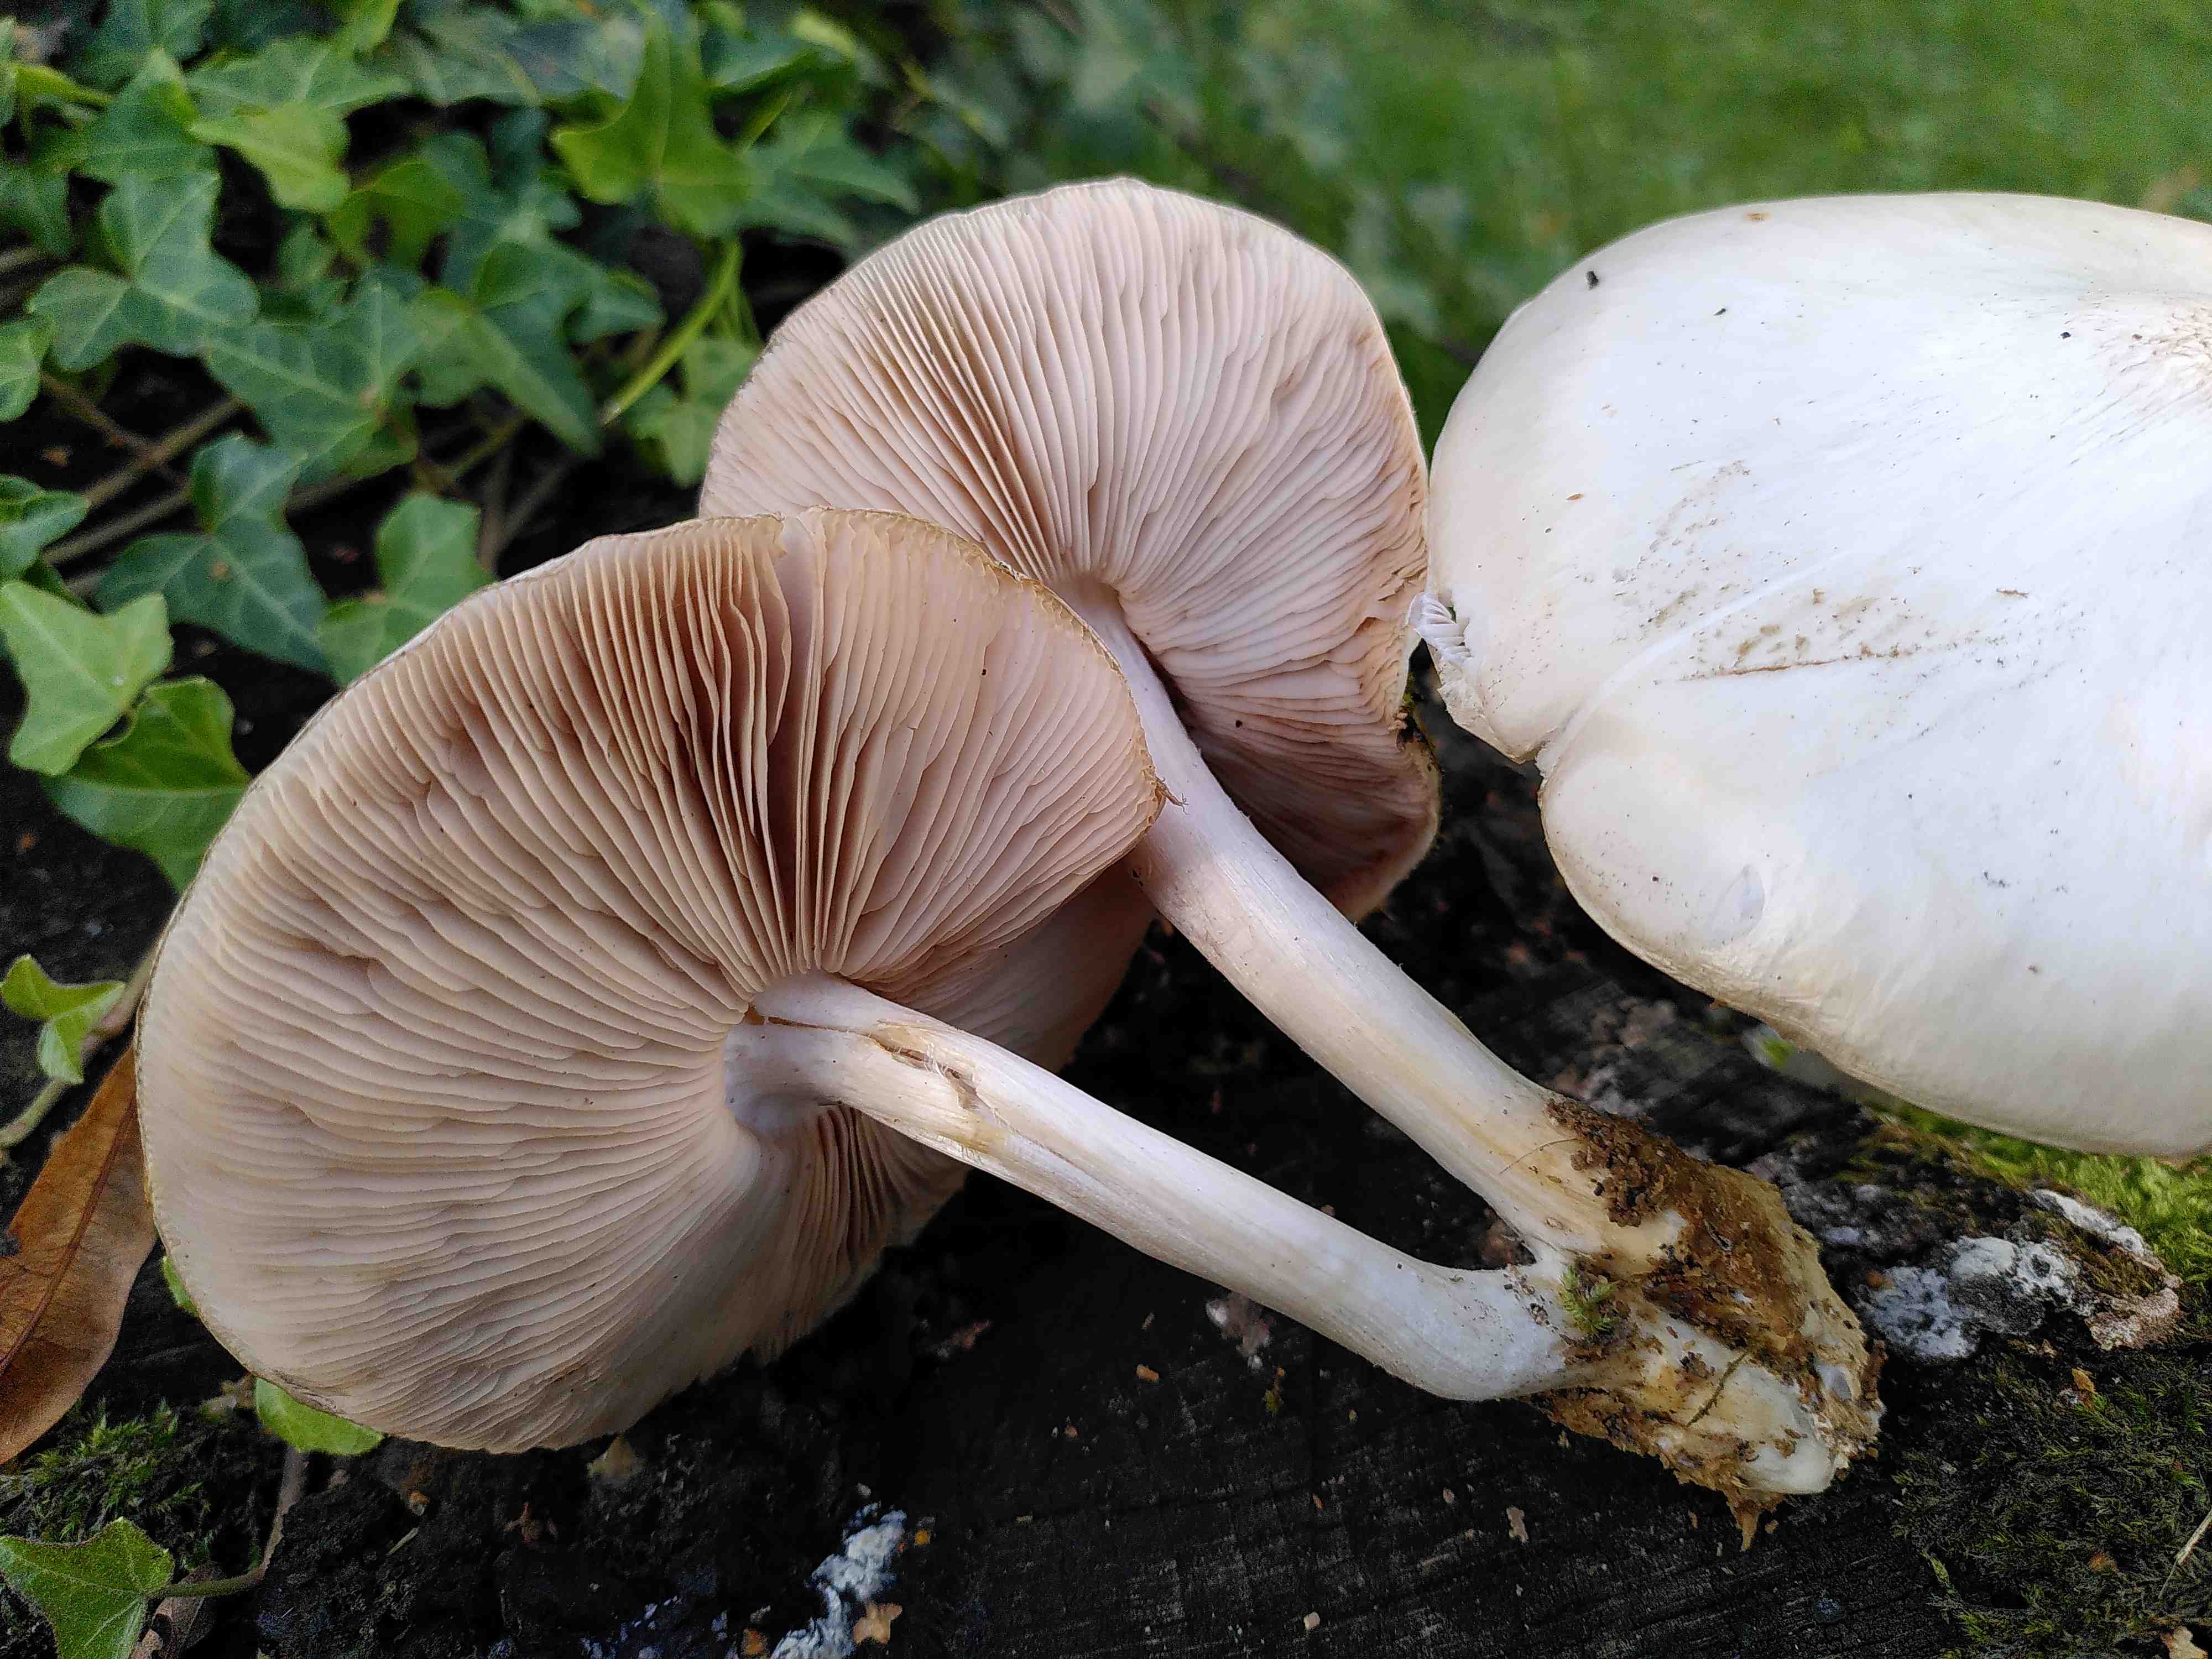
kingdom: Fungi
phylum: Basidiomycota
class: Agaricomycetes
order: Agaricales
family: Pluteaceae
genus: Pluteus
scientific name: Pluteus petasatus
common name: savsmulds-skærmhat
